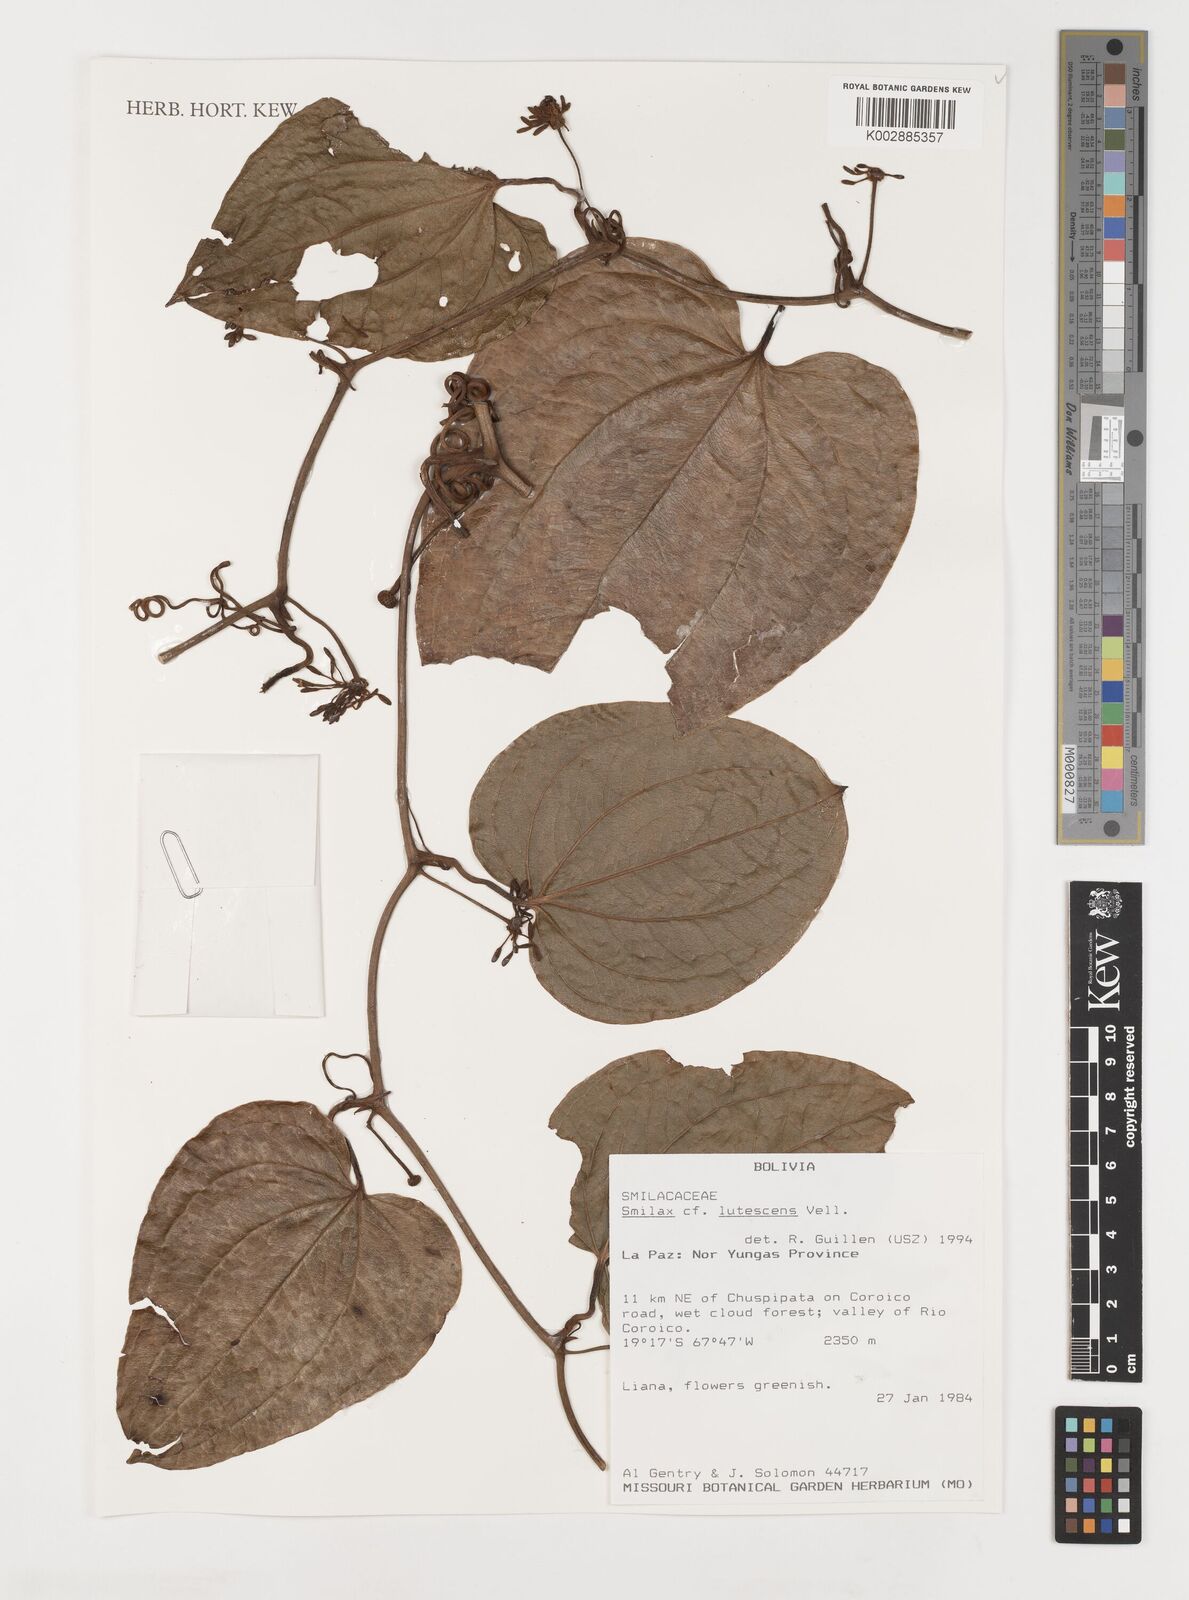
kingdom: Plantae
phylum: Tracheophyta
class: Liliopsida
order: Liliales
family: Smilacaceae
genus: Smilax
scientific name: Smilax lutescens
